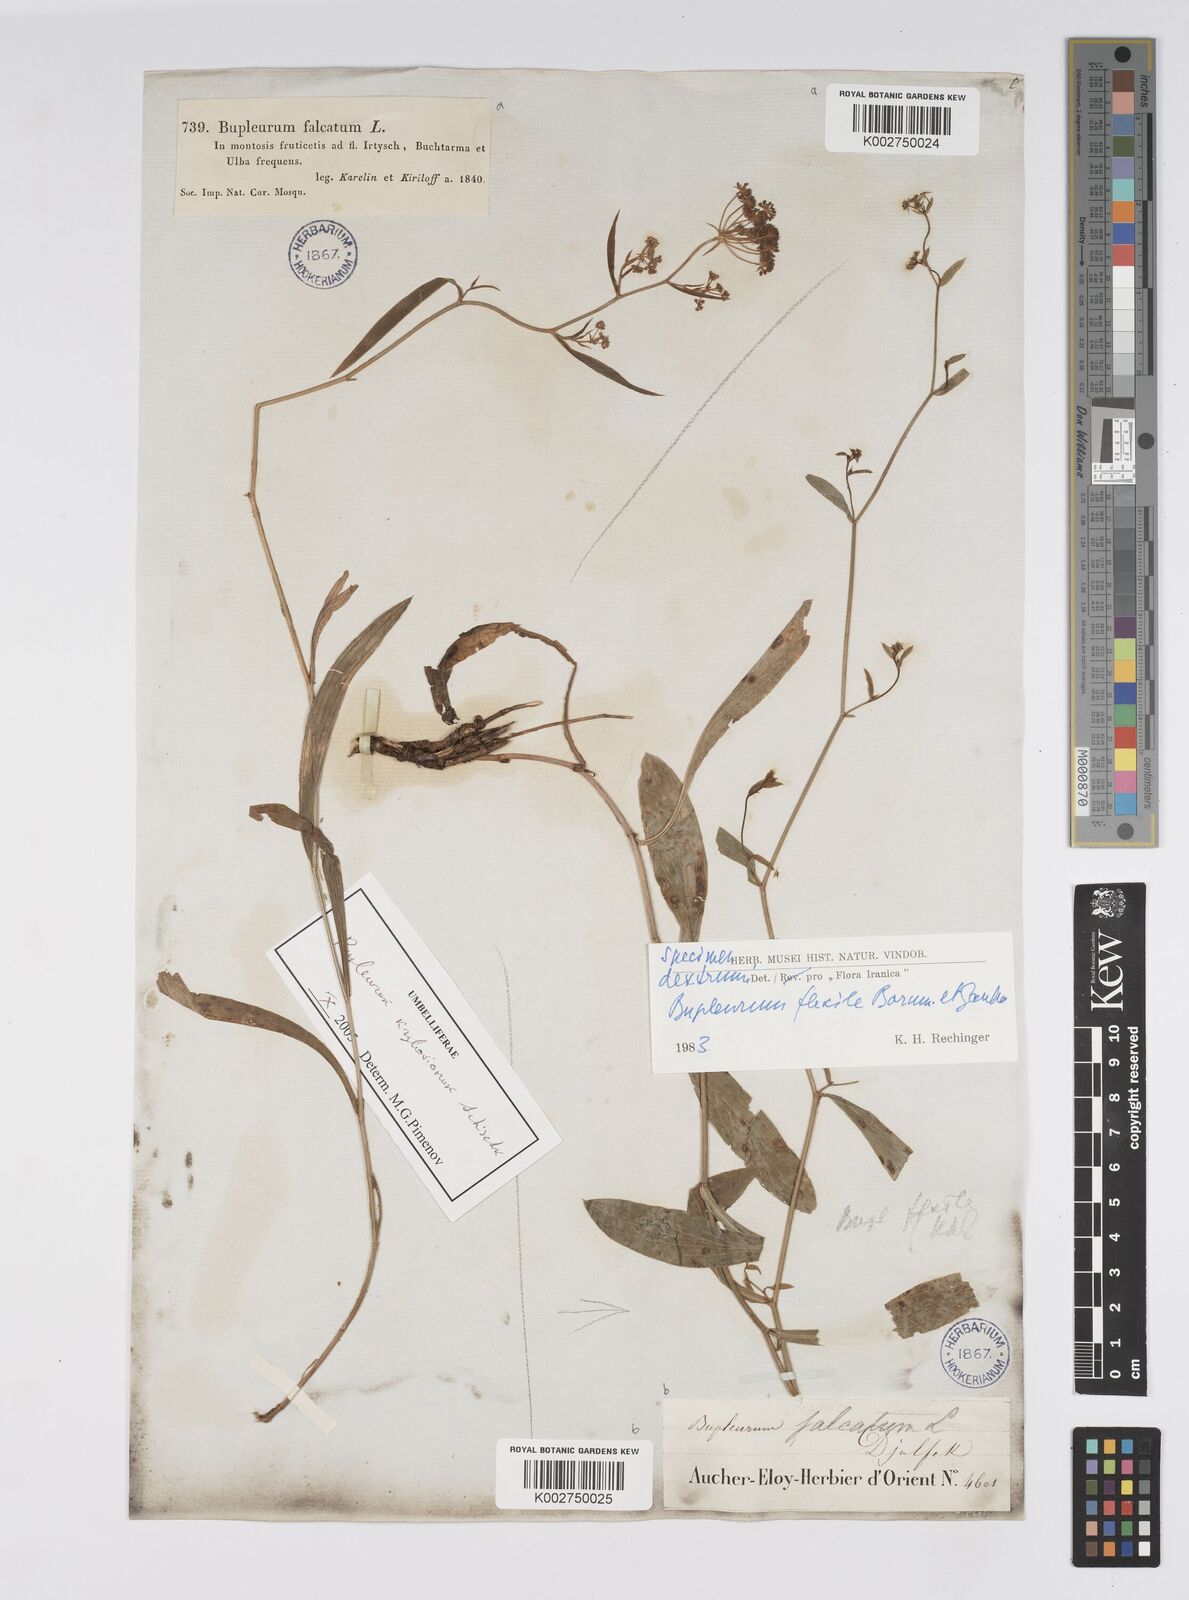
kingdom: Plantae
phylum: Tracheophyta
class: Magnoliopsida
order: Apiales
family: Apiaceae
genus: Bupleurum
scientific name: Bupleurum flexile
